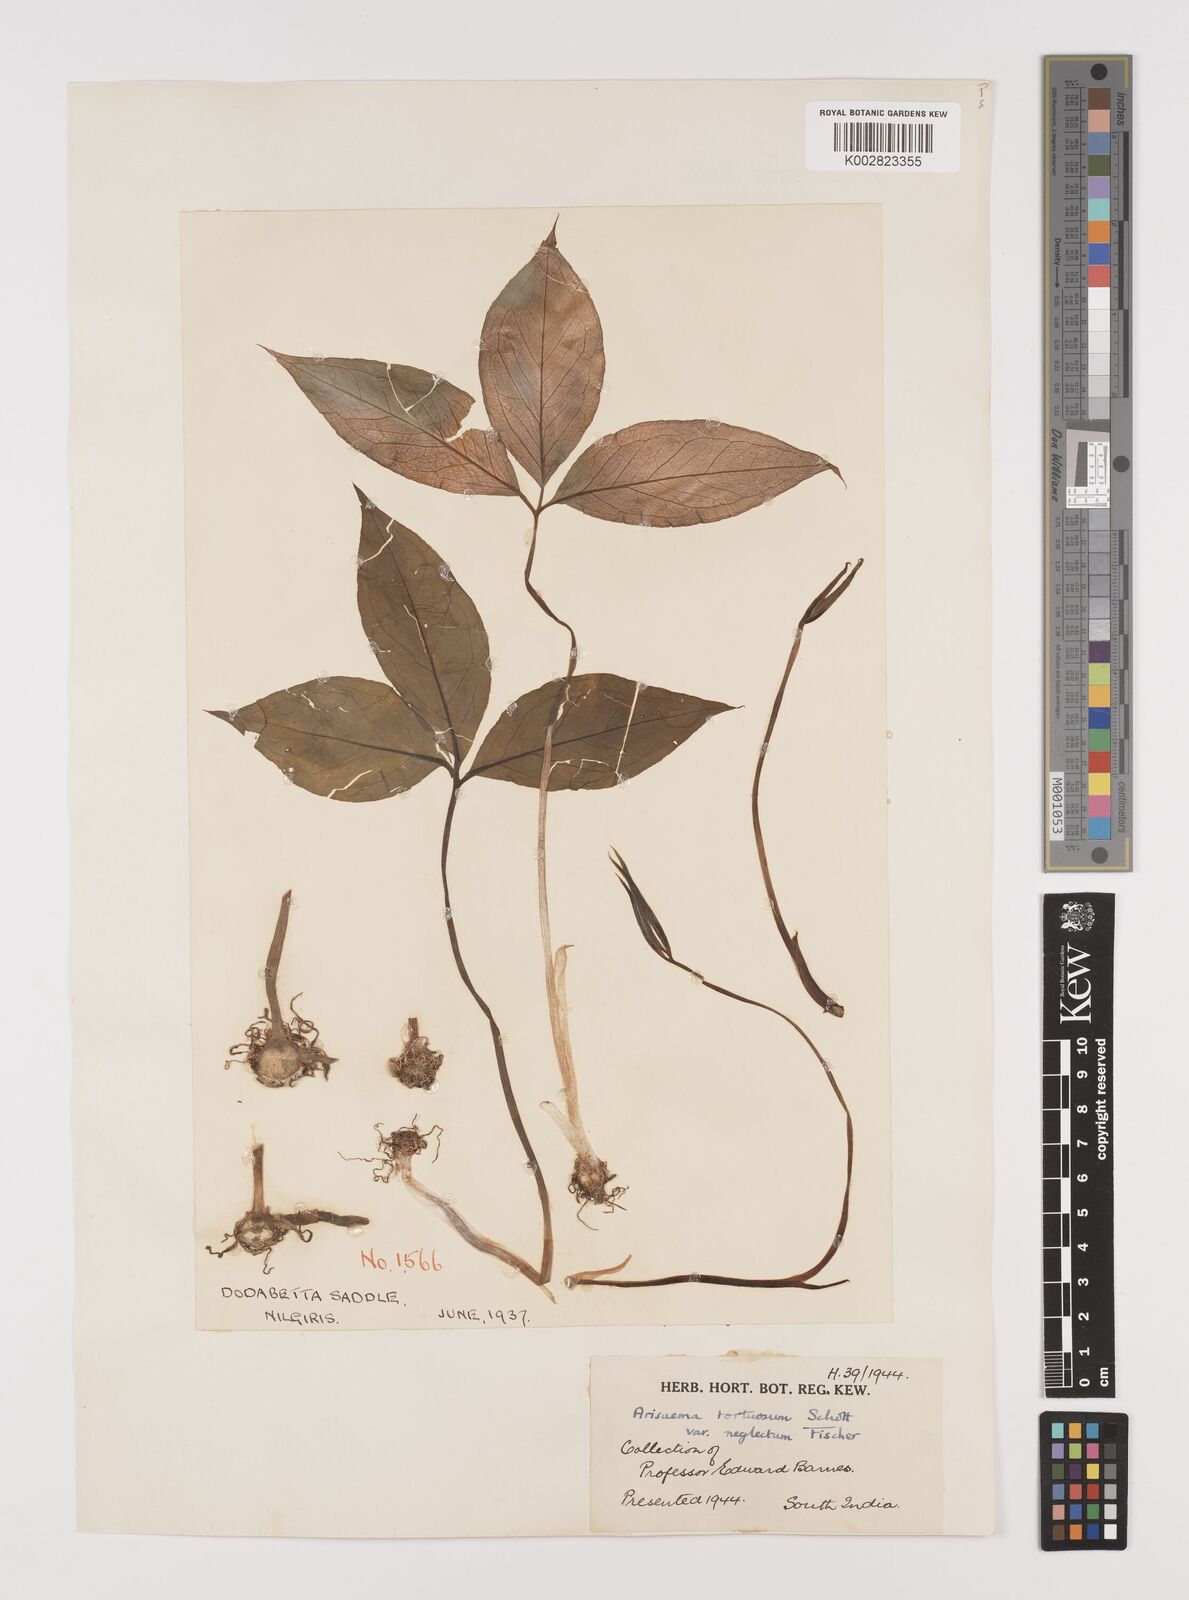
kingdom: Plantae
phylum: Tracheophyta
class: Liliopsida
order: Alismatales
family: Araceae
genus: Arisaema
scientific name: Arisaema tortuosum
